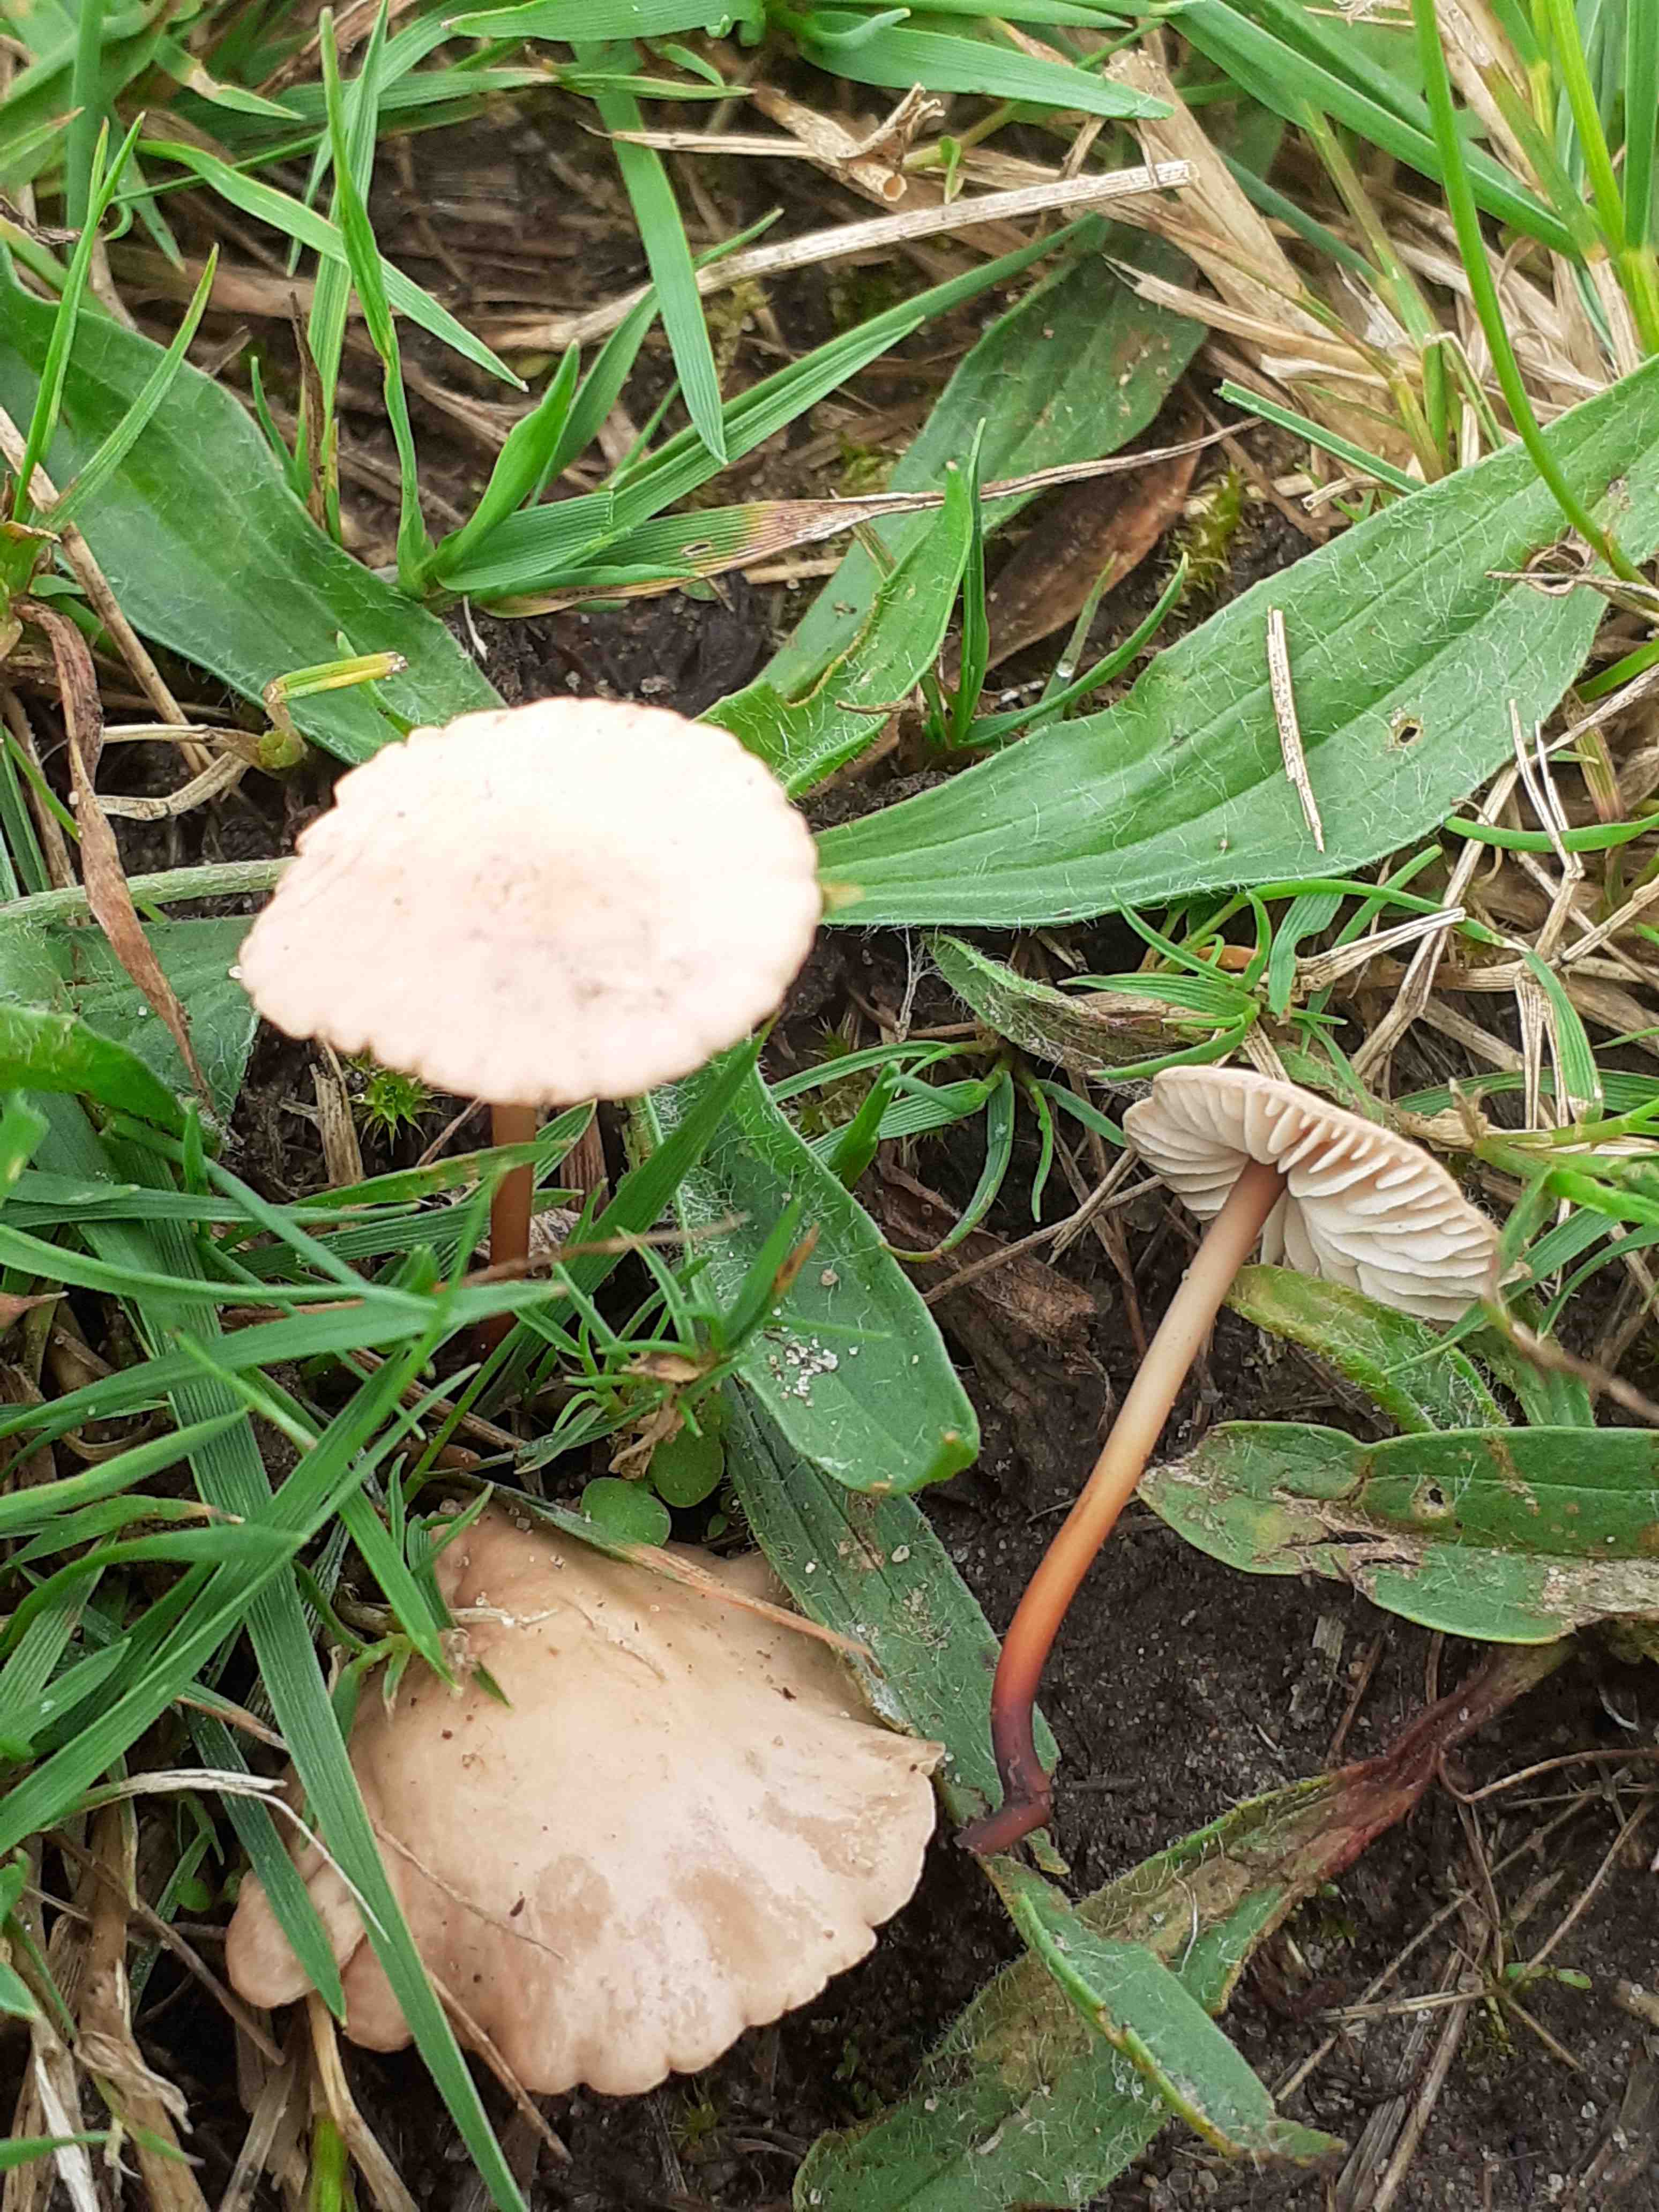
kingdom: Fungi
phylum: Basidiomycota
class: Agaricomycetes
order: Agaricales
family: Omphalotaceae
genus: Mycetinis
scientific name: Mycetinis scorodonius
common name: lille løghat
